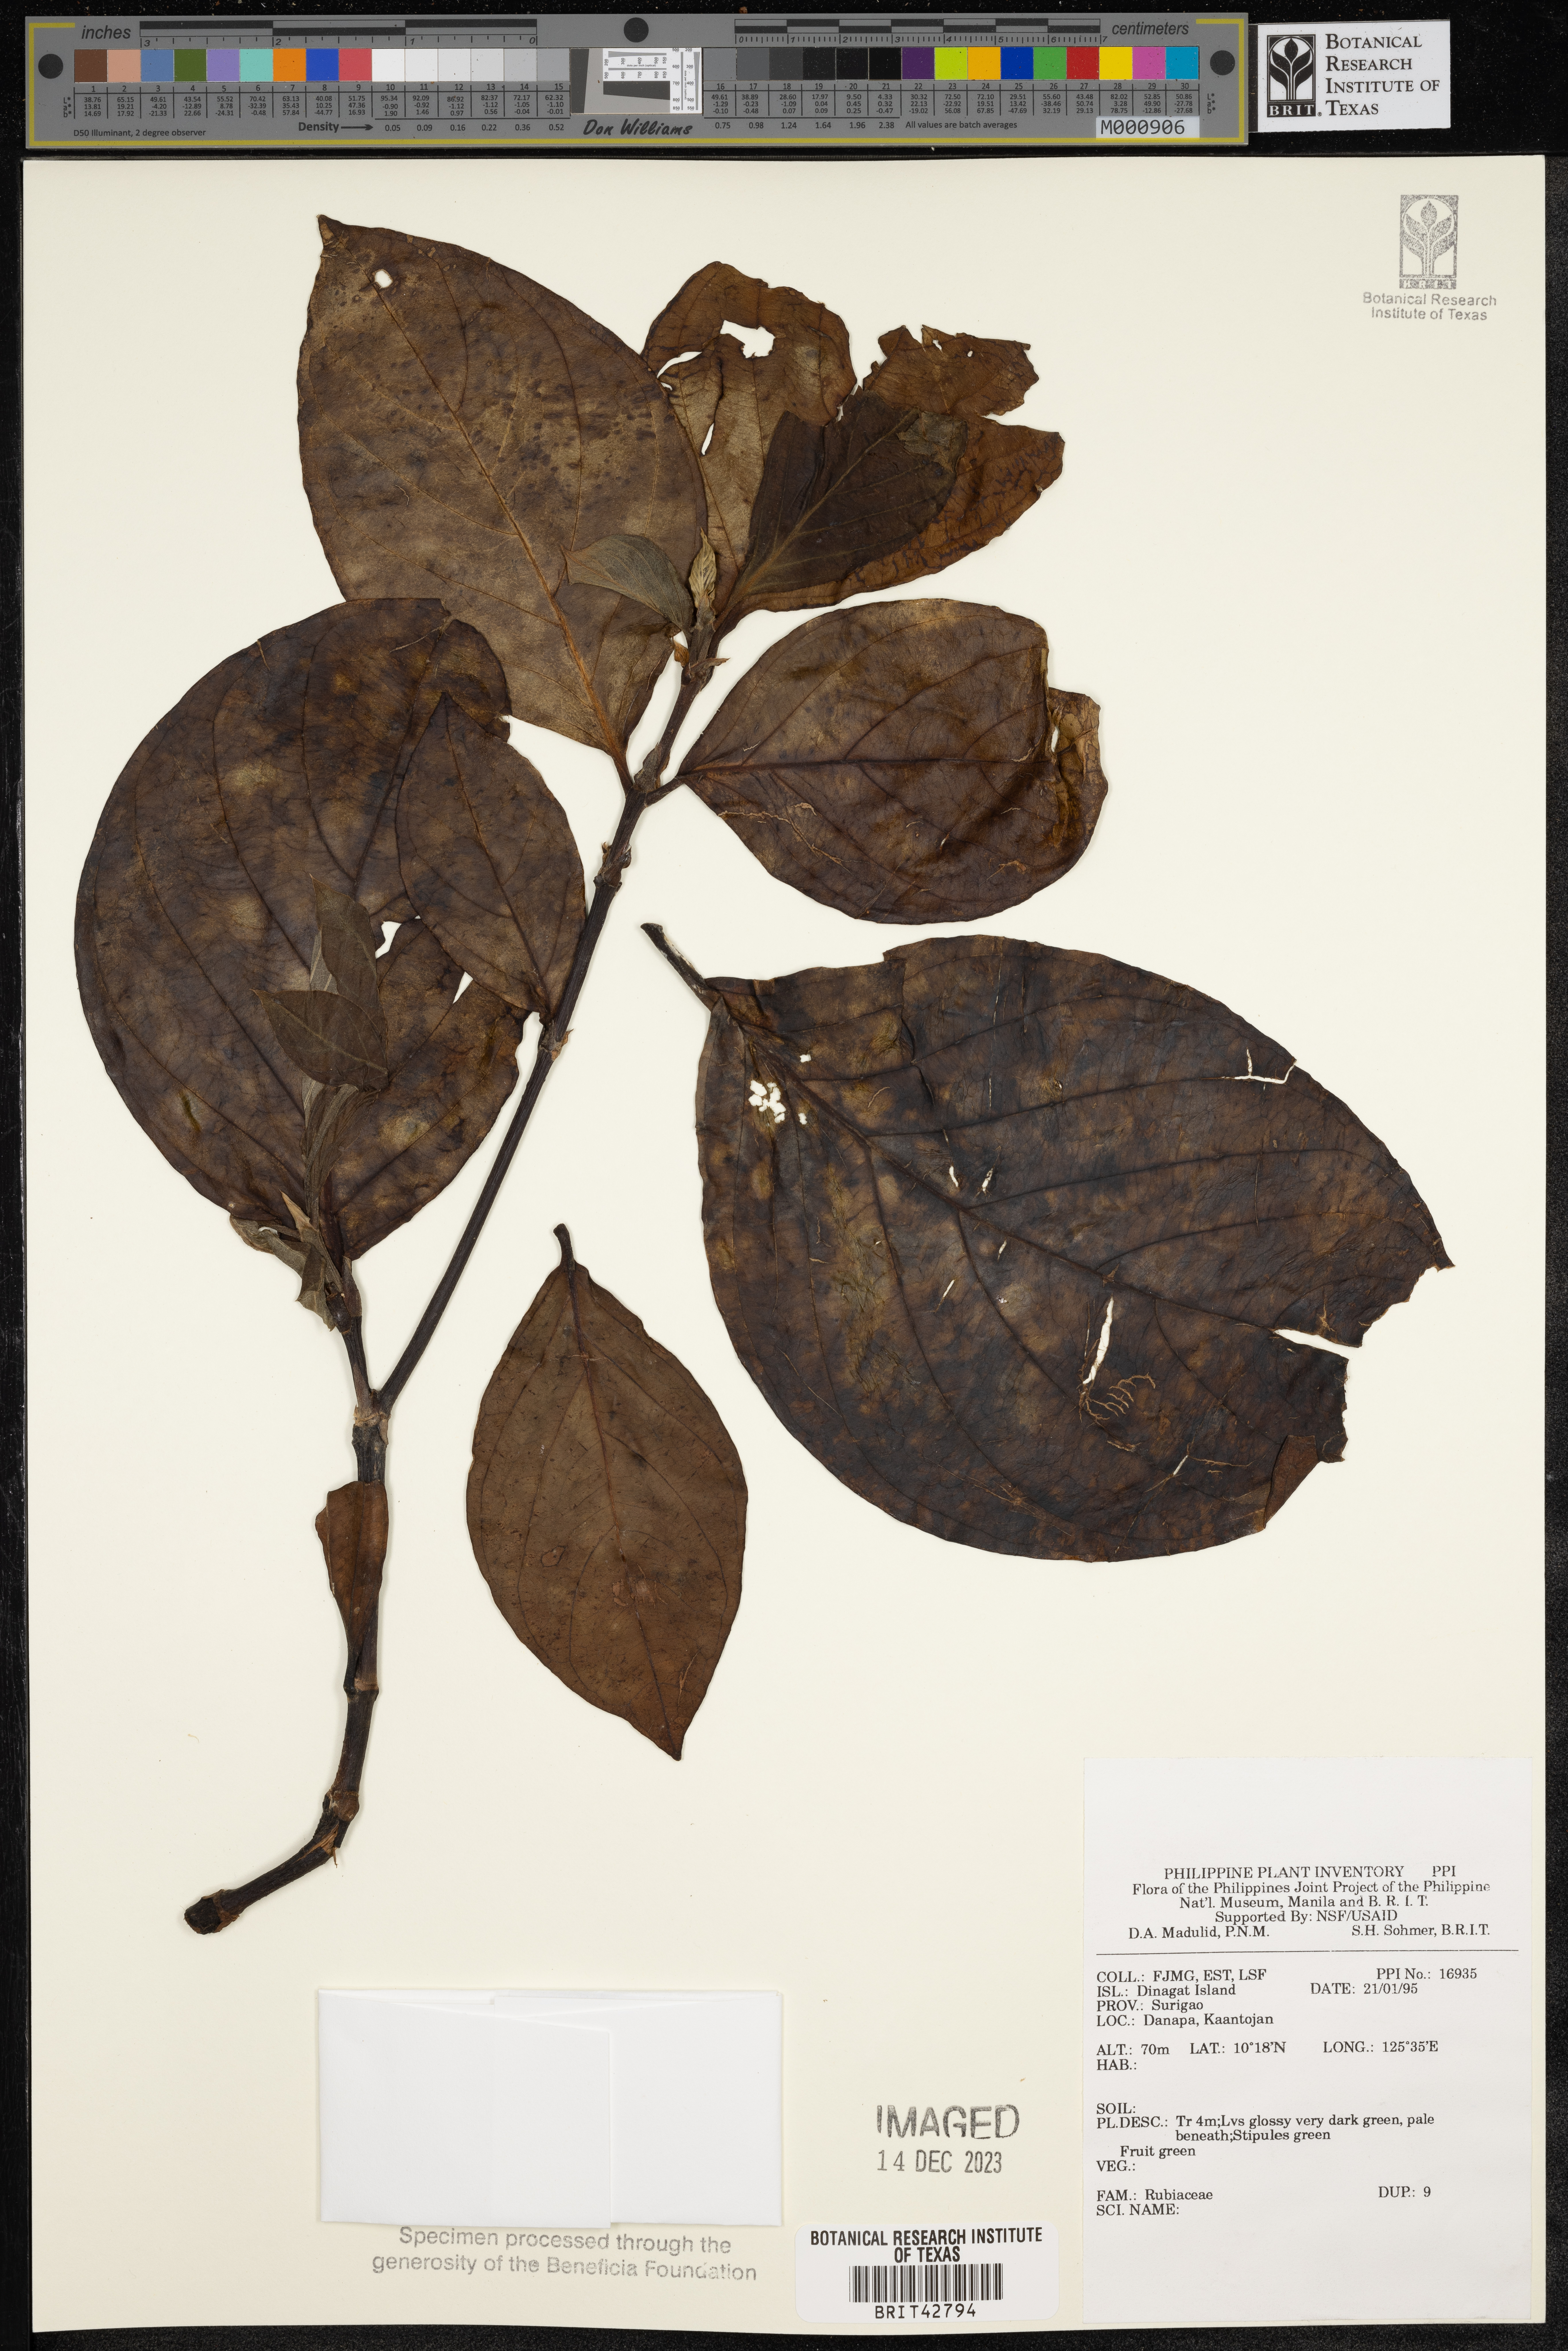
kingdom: Plantae
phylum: Tracheophyta
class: Magnoliopsida
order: Gentianales
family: Rubiaceae
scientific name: Rubiaceae
